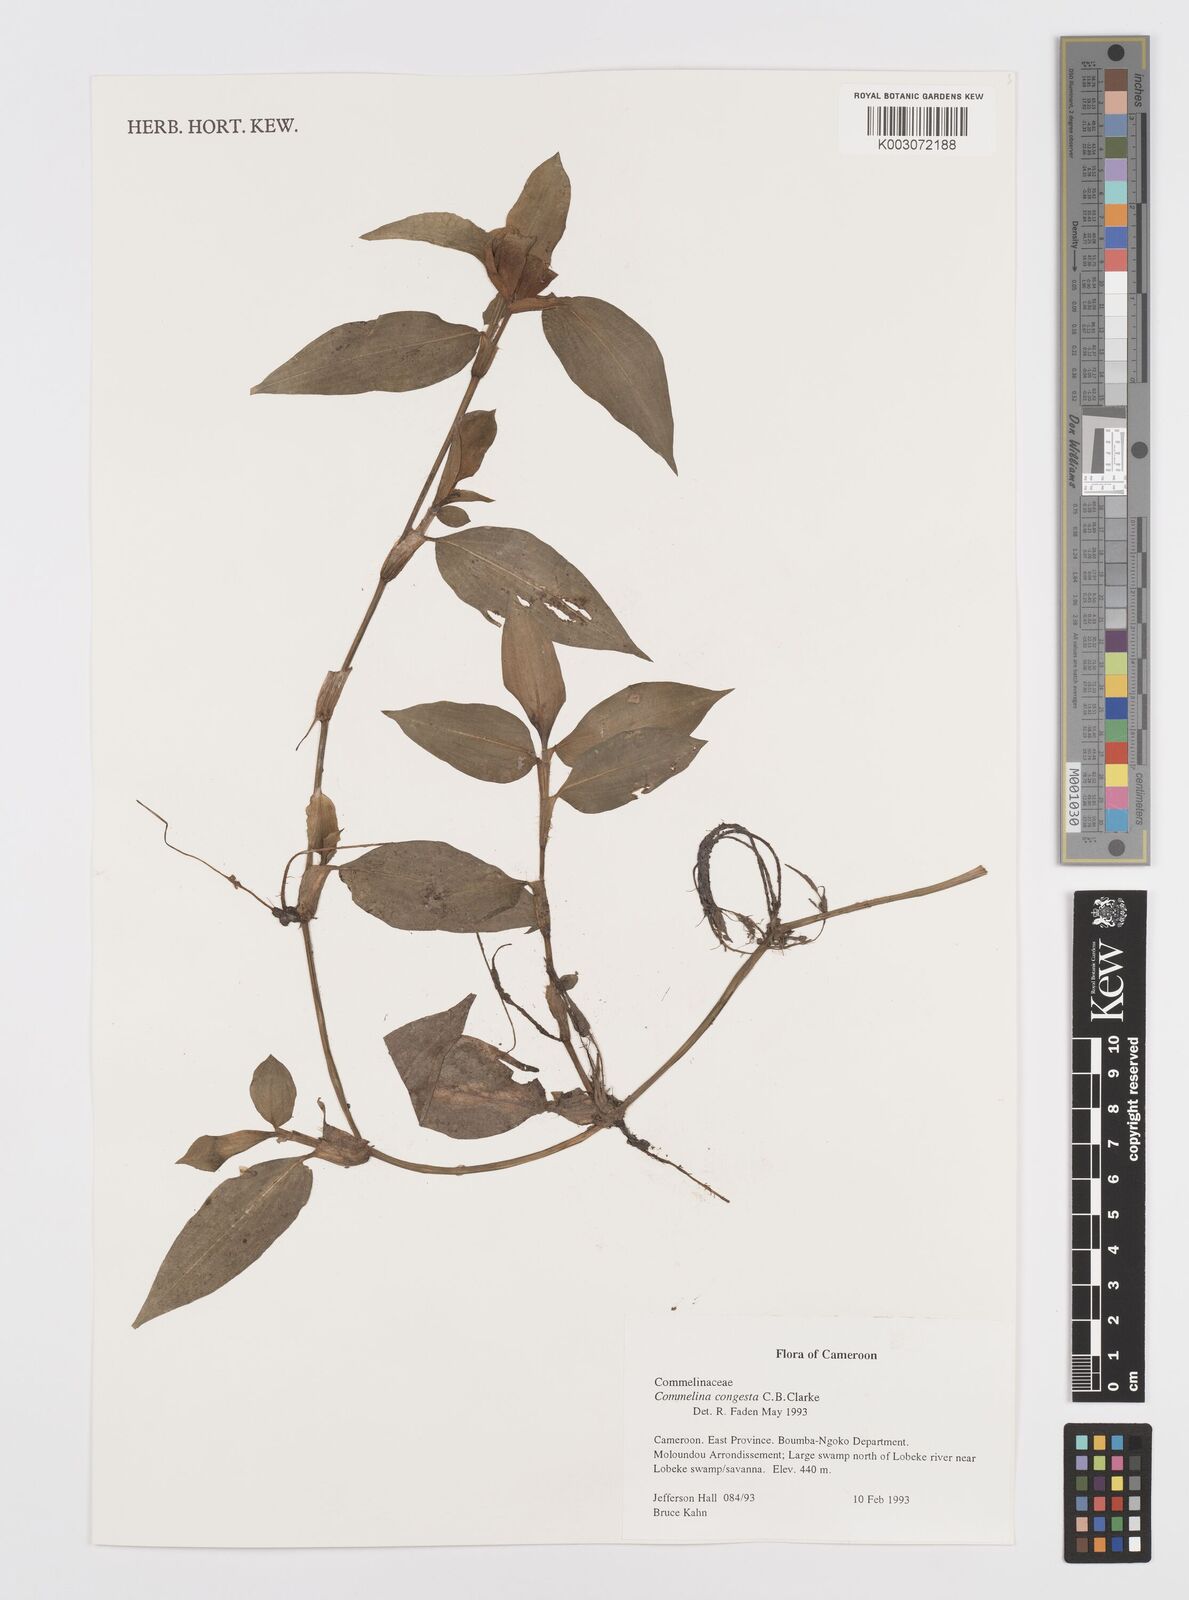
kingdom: Plantae
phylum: Tracheophyta
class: Liliopsida
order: Commelinales
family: Commelinaceae
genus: Commelina
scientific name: Commelina congesta
